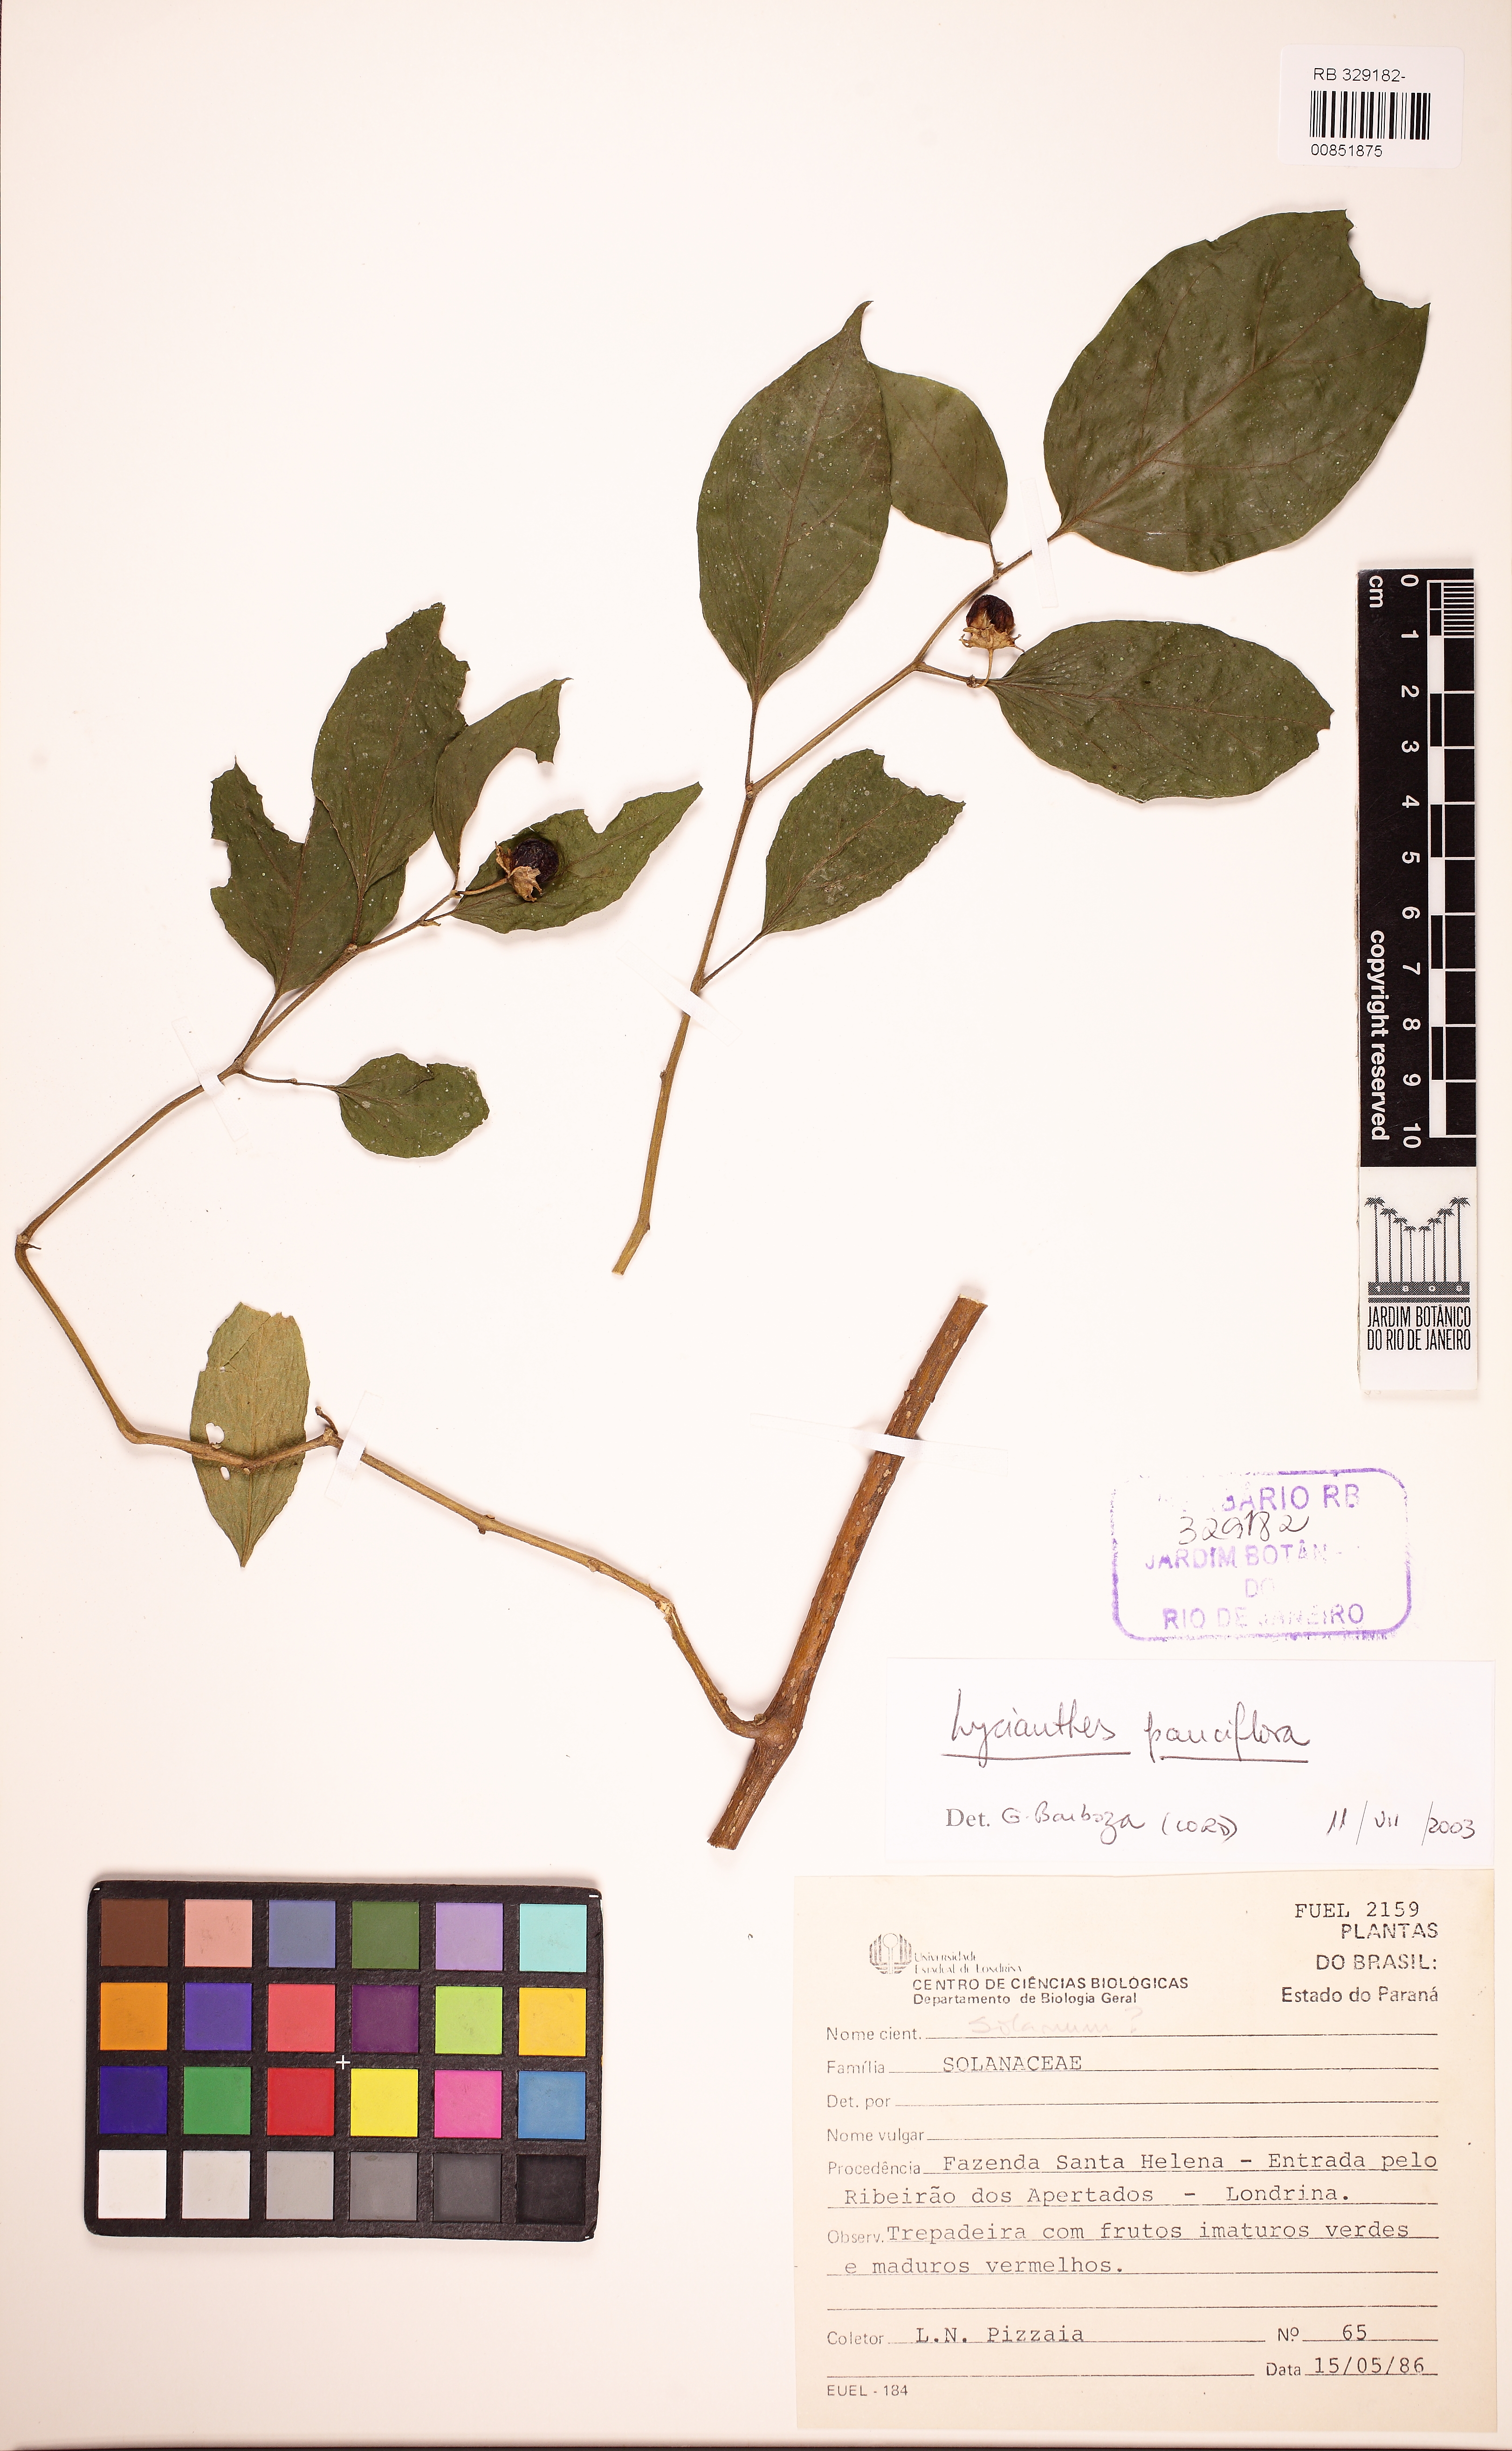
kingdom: Plantae
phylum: Tracheophyta
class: Magnoliopsida
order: Solanales
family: Solanaceae
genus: Lycianthes
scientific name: Lycianthes glandulosa
